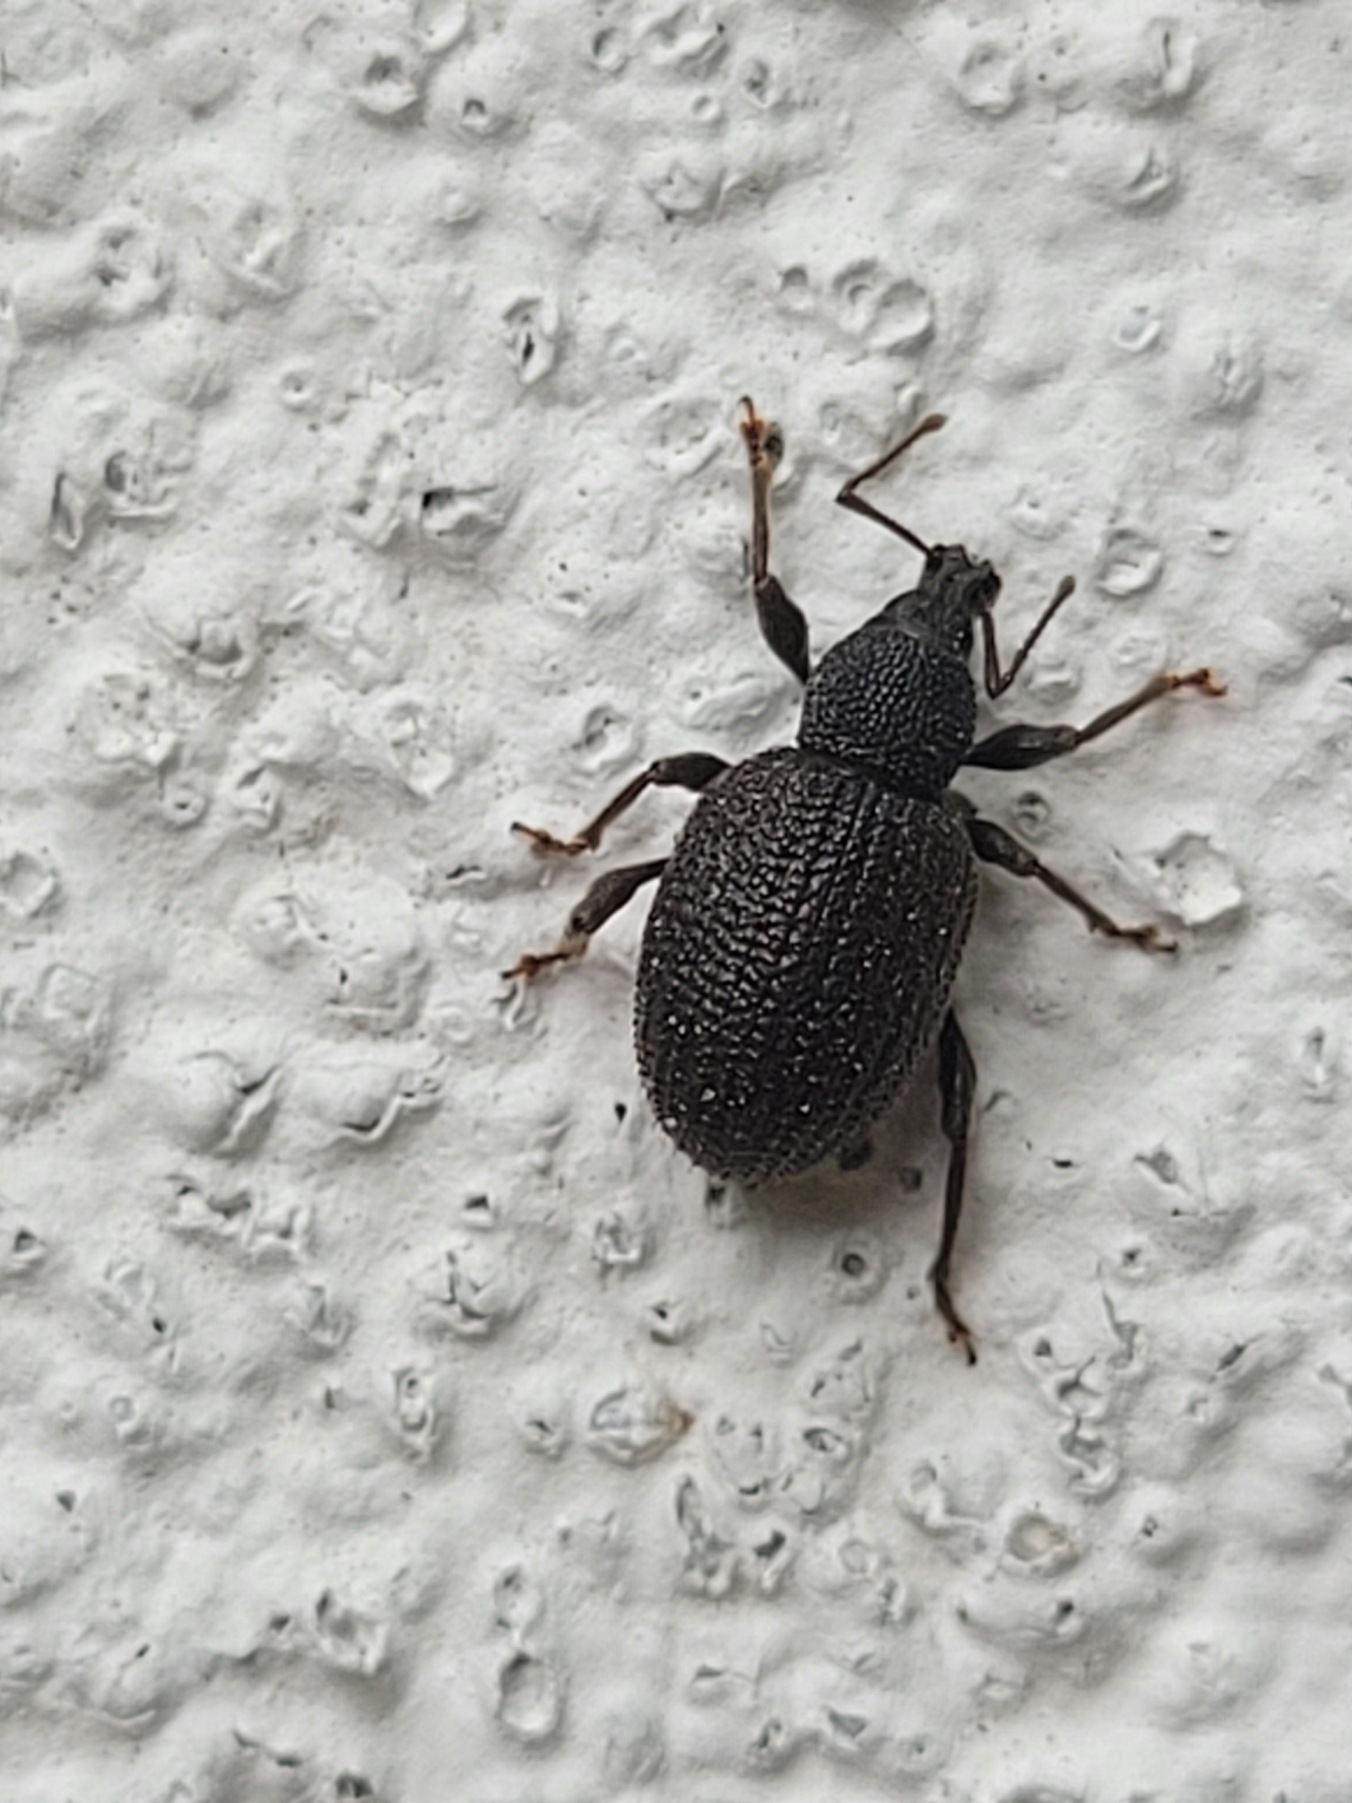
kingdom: Animalia
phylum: Arthropoda
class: Insecta
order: Coleoptera
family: Curculionidae
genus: Otiorhynchus
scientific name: Otiorhynchus rugosostriatus
